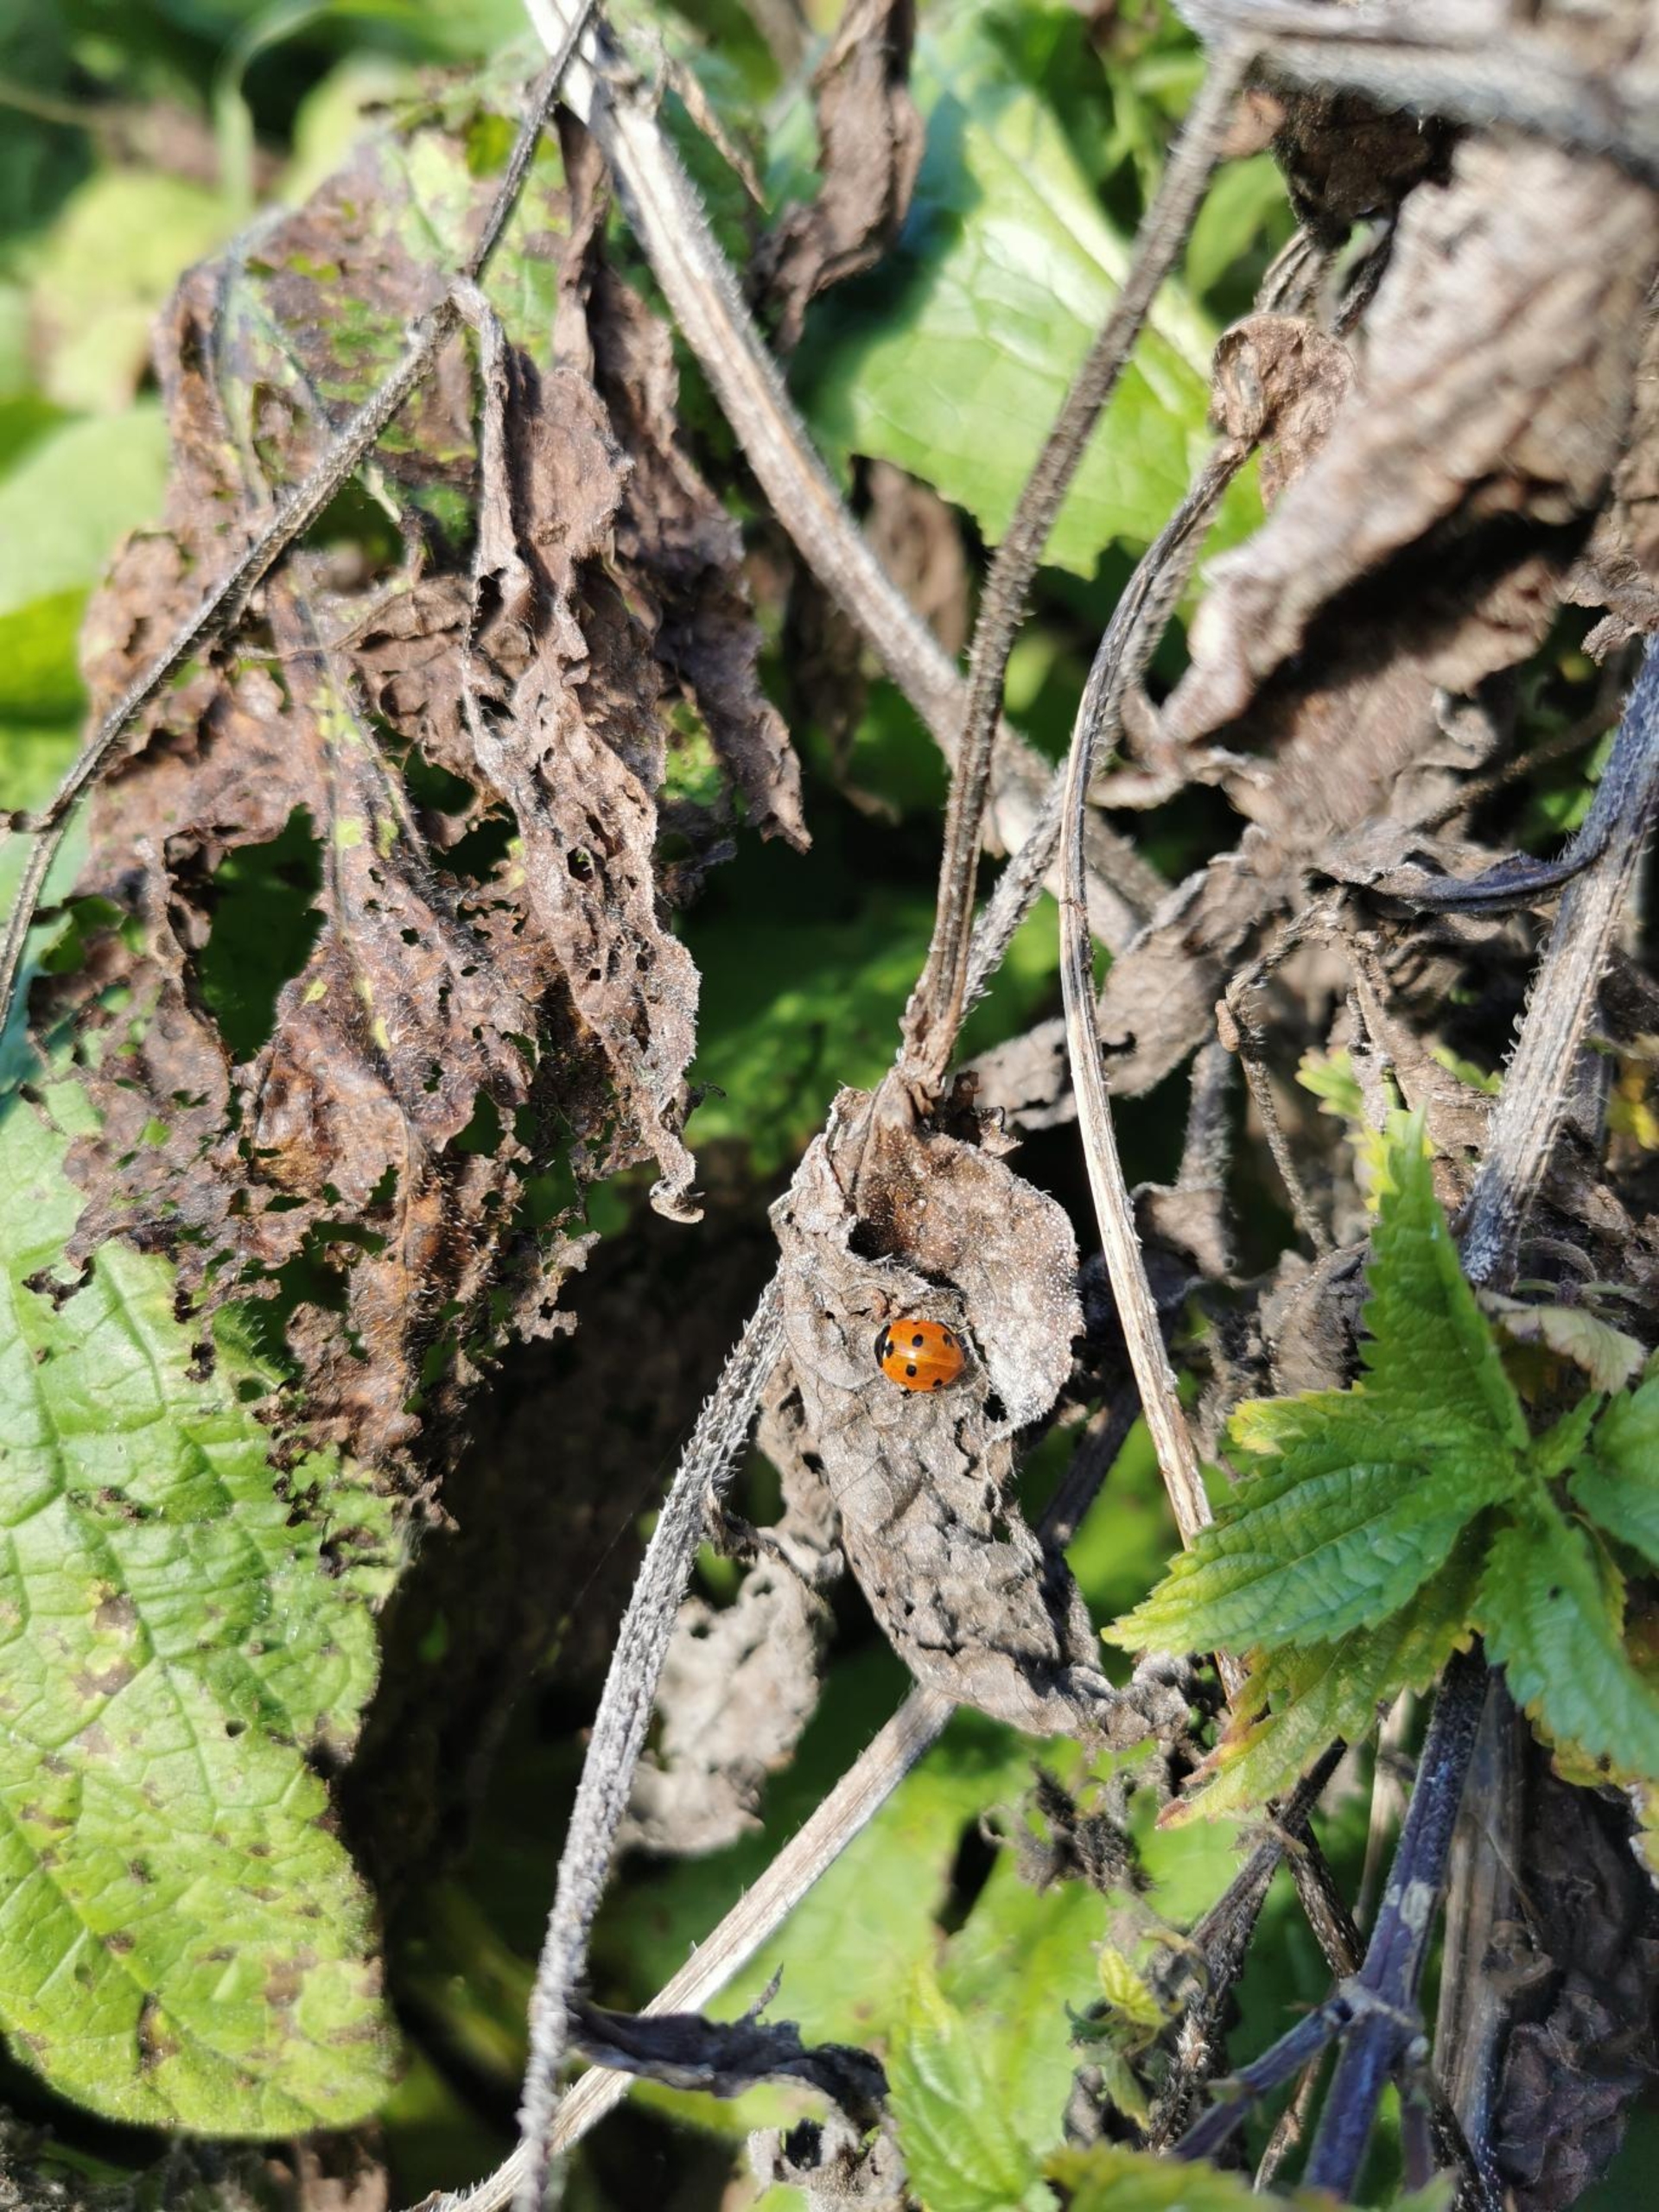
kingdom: Animalia
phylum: Arthropoda
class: Insecta
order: Coleoptera
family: Coccinellidae
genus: Coccinella
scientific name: Coccinella septempunctata
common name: Syvplettet mariehøne
